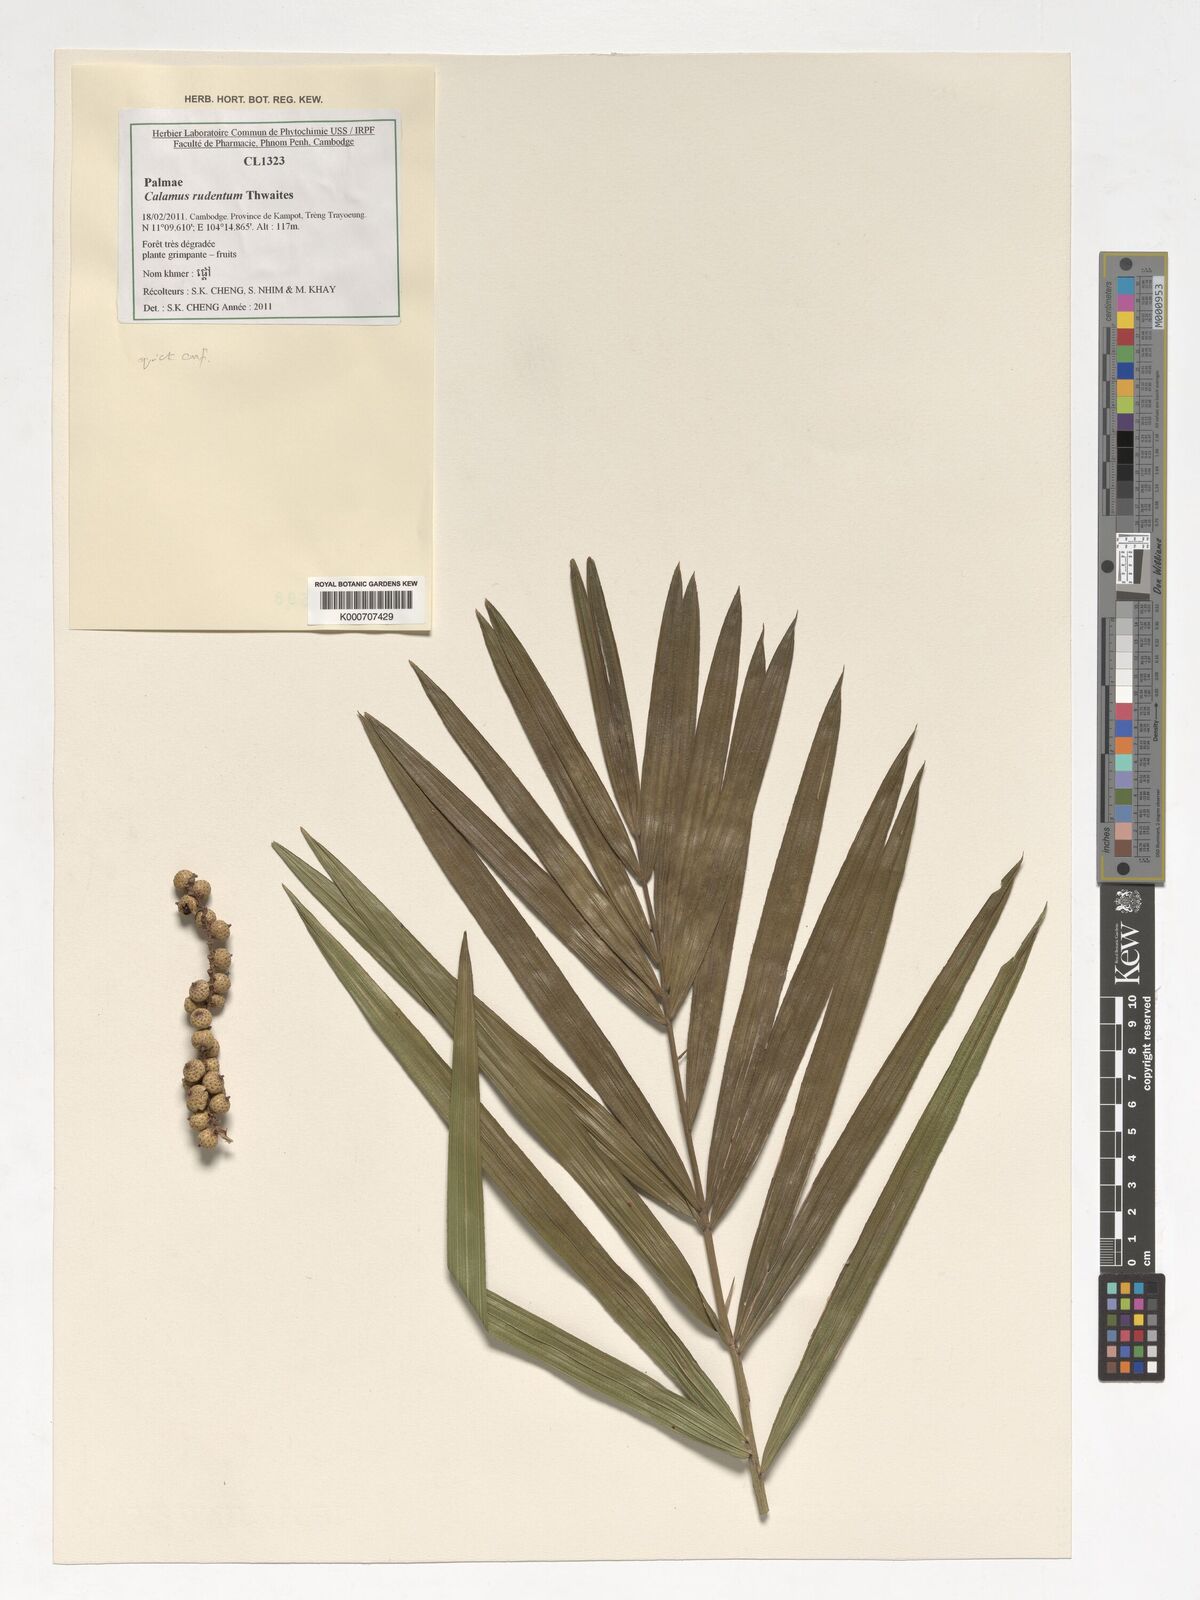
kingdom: Plantae
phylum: Tracheophyta
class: Liliopsida
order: Arecales
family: Arecaceae
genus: Calamus
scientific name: Calamus rudentum
